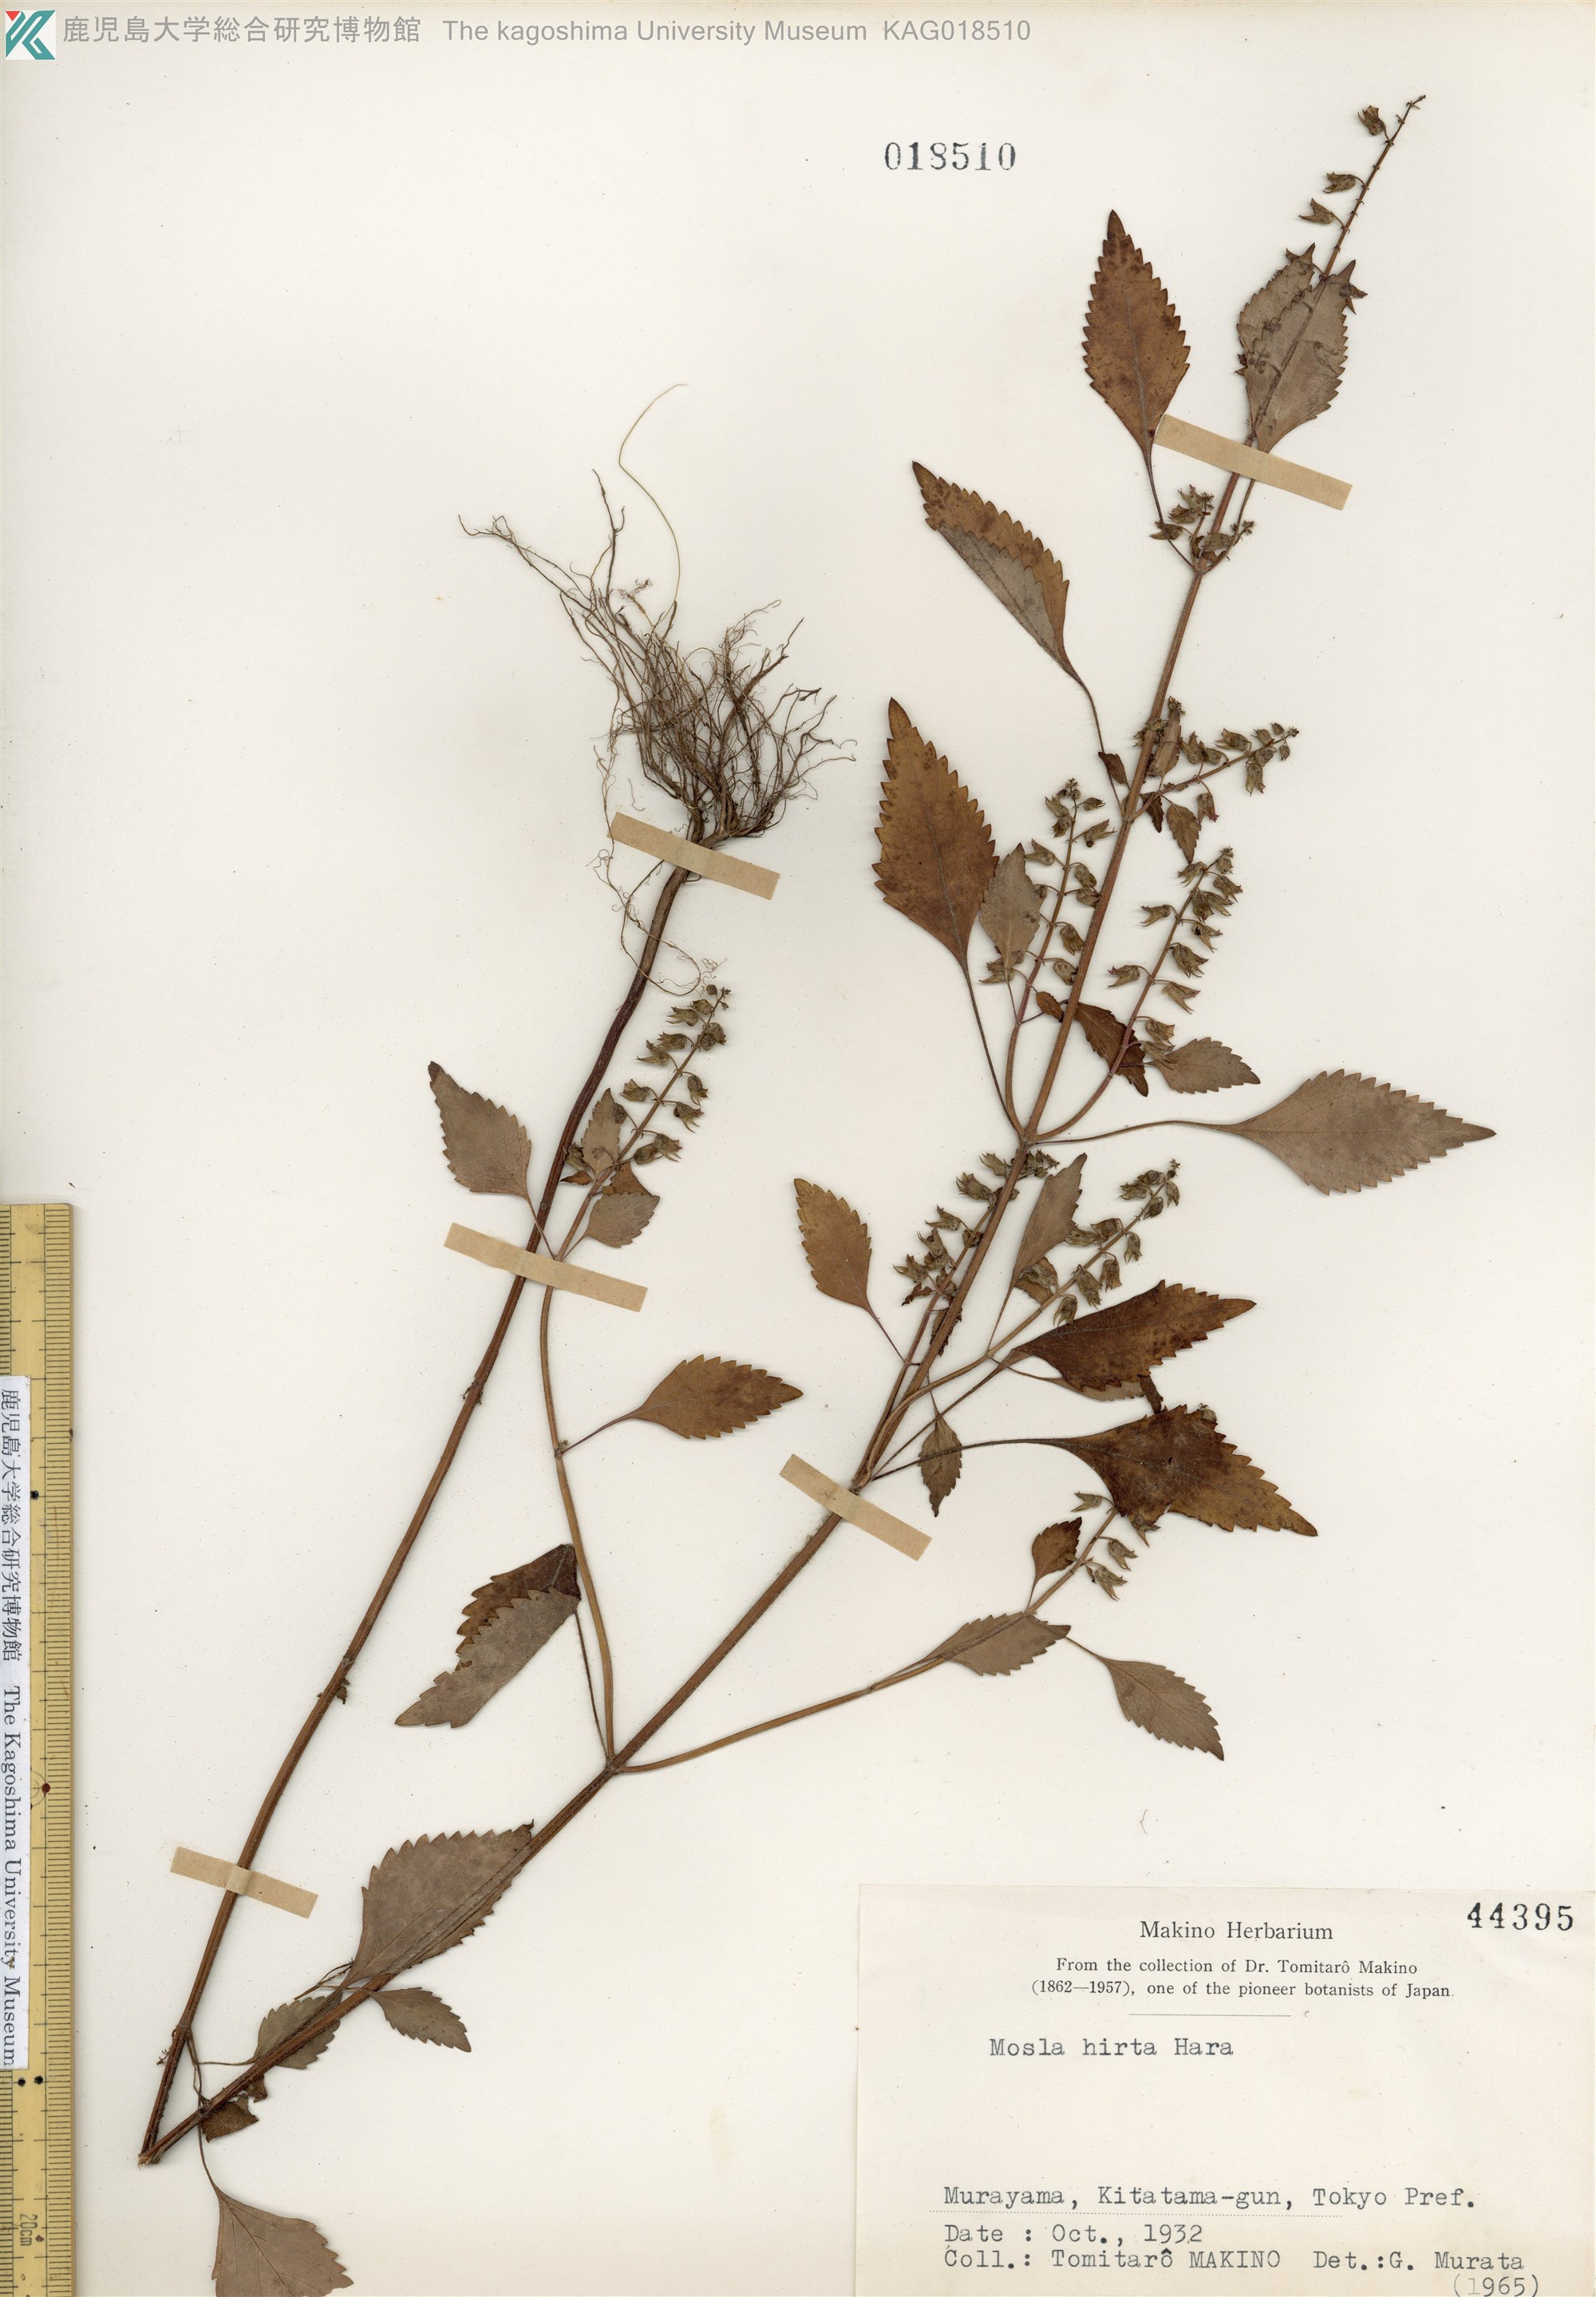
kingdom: Plantae
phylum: Tracheophyta
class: Magnoliopsida
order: Lamiales
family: Lamiaceae
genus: Mosla
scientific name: Mosla dianthera
